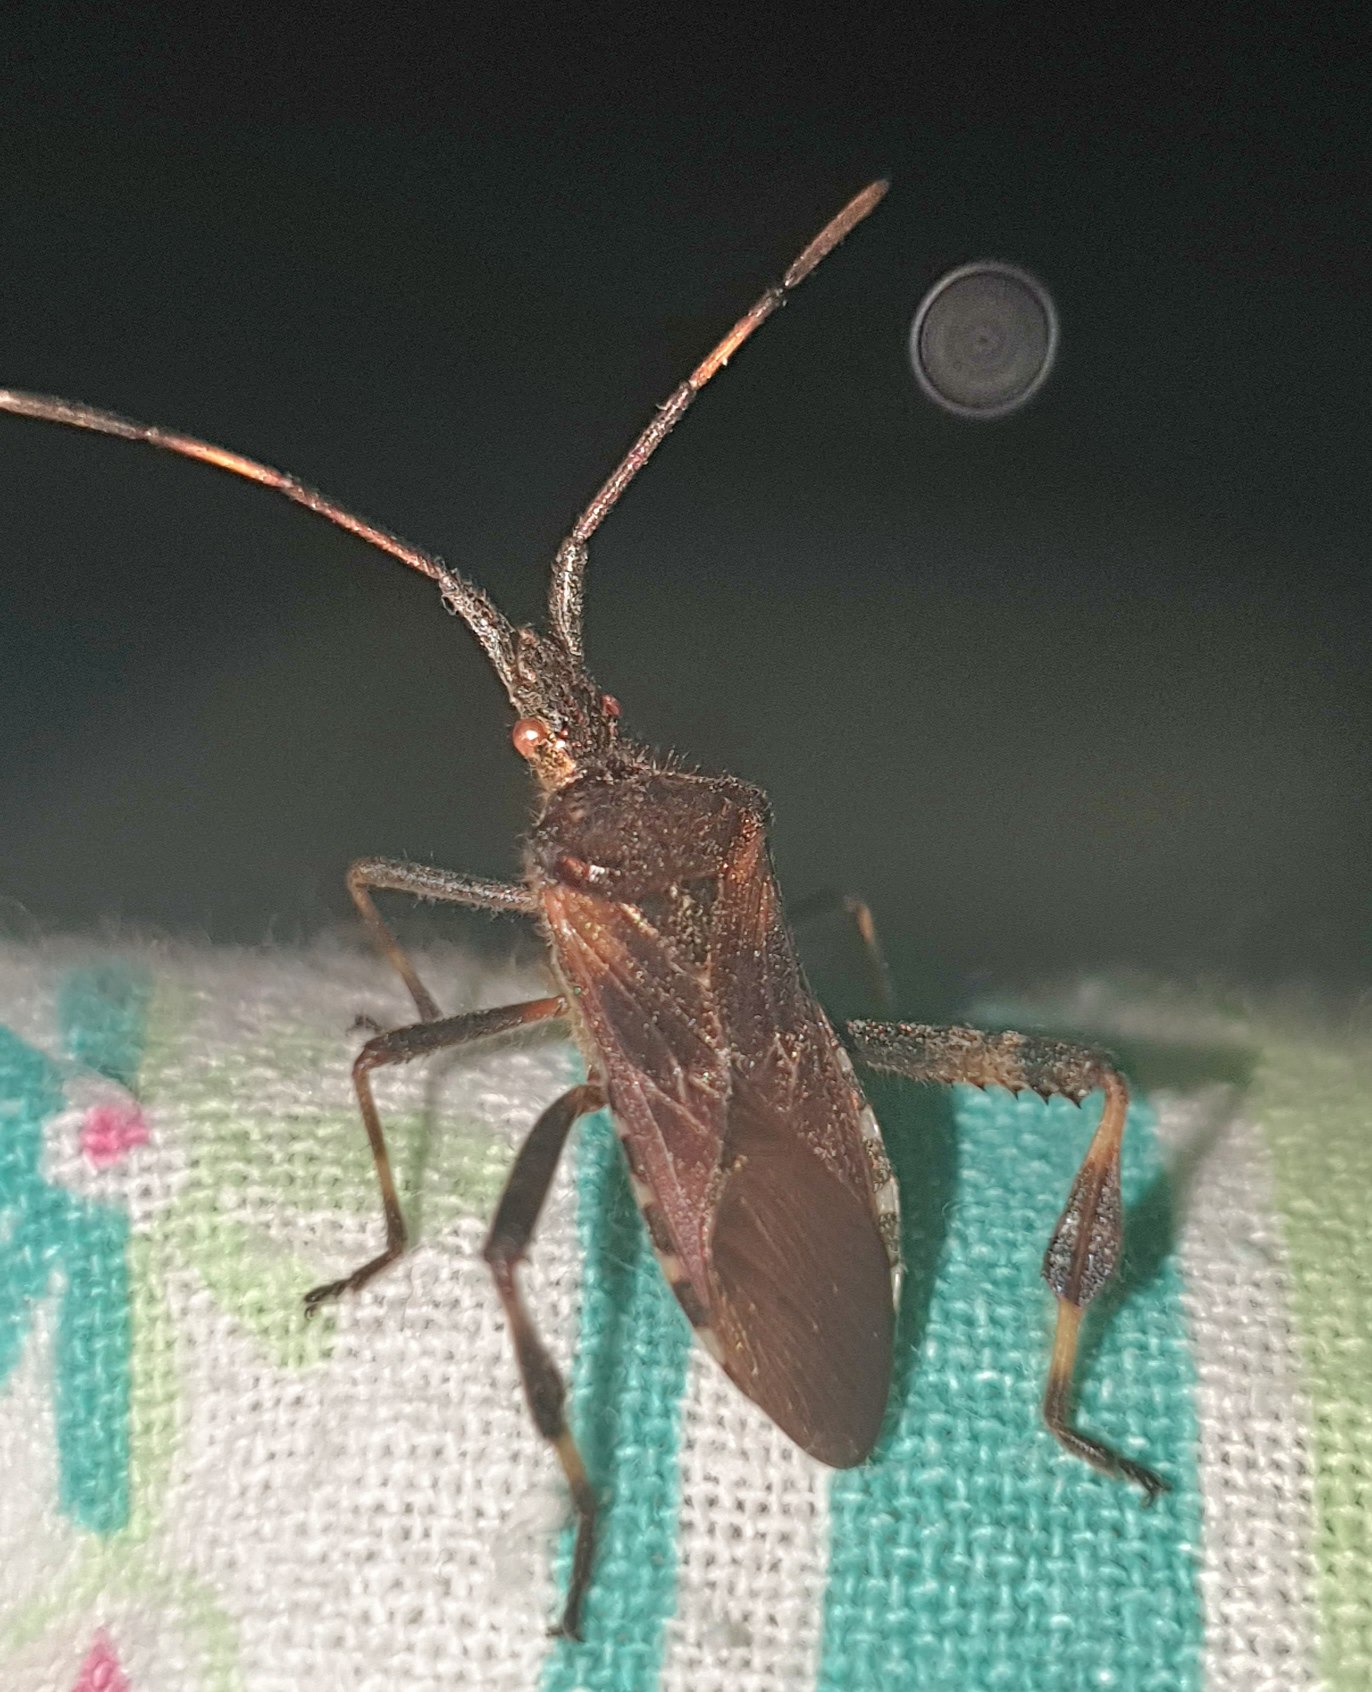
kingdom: Animalia
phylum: Arthropoda
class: Insecta
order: Hemiptera
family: Coreidae
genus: Leptoglossus
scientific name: Leptoglossus occidentalis
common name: Amerikansk fyrretæge
